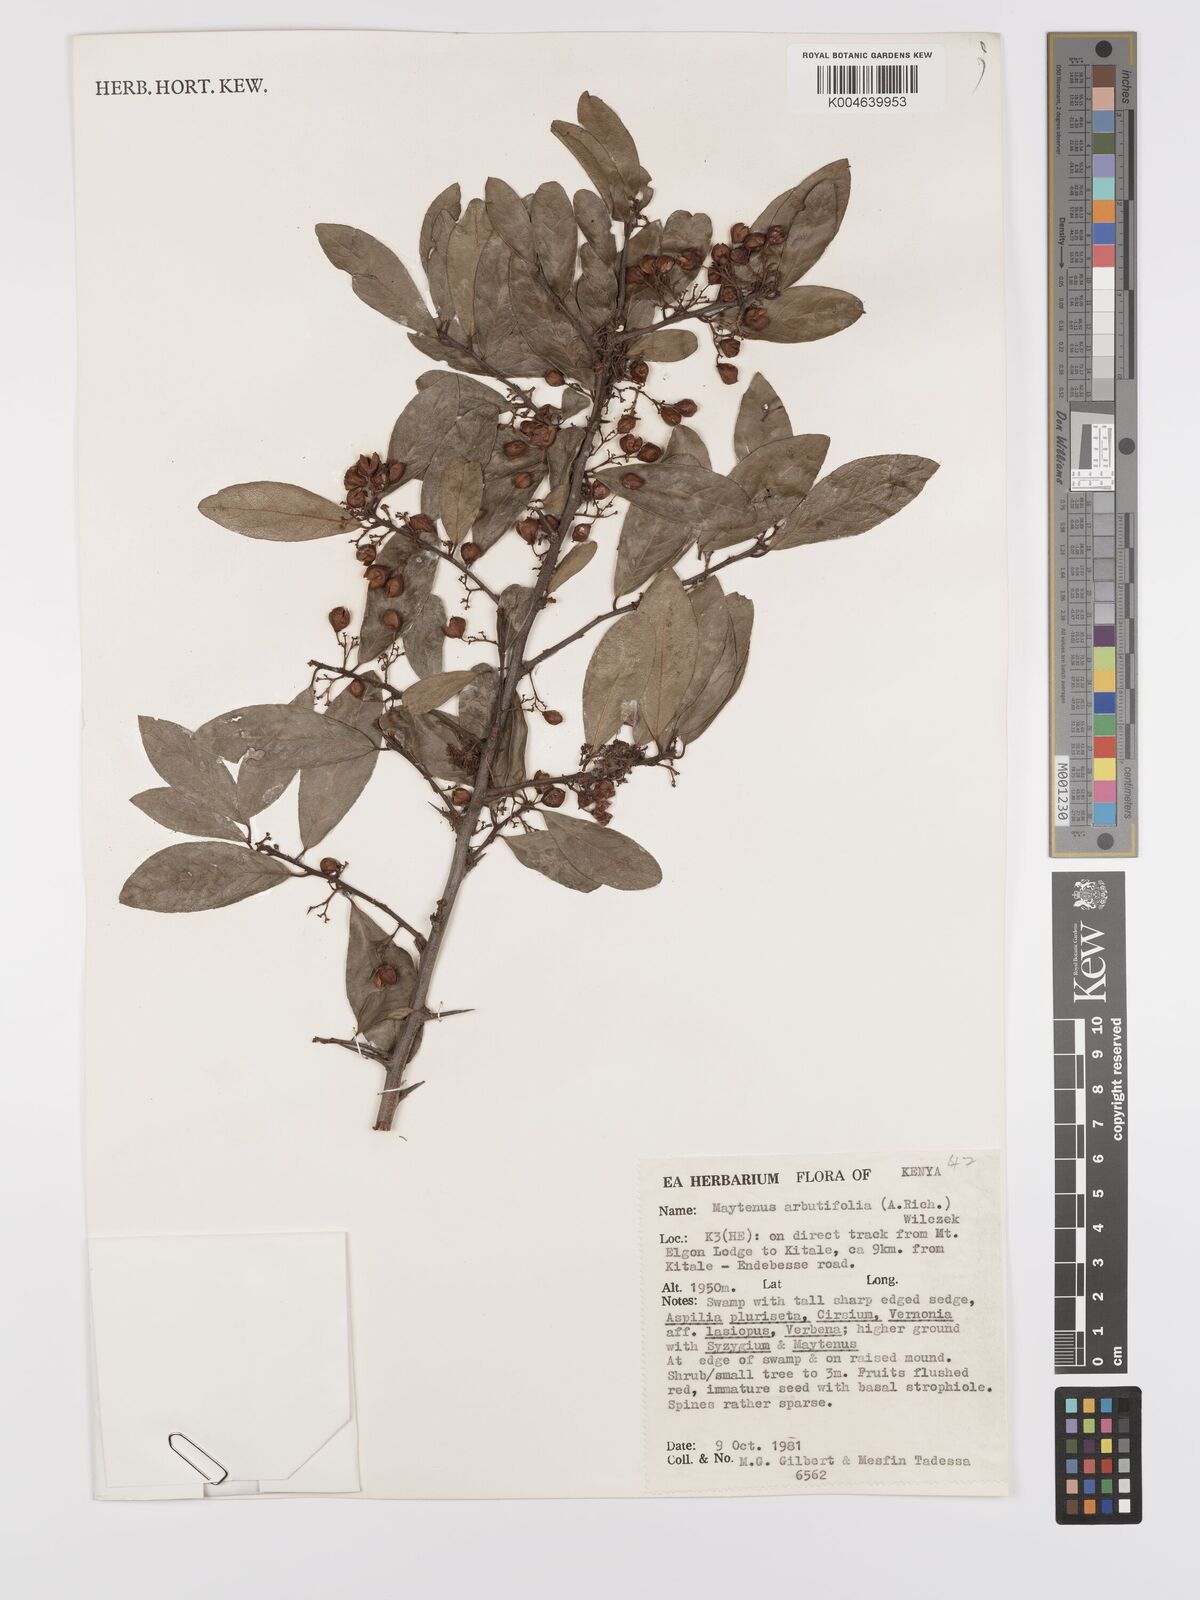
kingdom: Plantae
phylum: Tracheophyta
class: Magnoliopsida
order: Celastrales
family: Celastraceae
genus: Gymnosporia
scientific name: Gymnosporia arbutifolia
